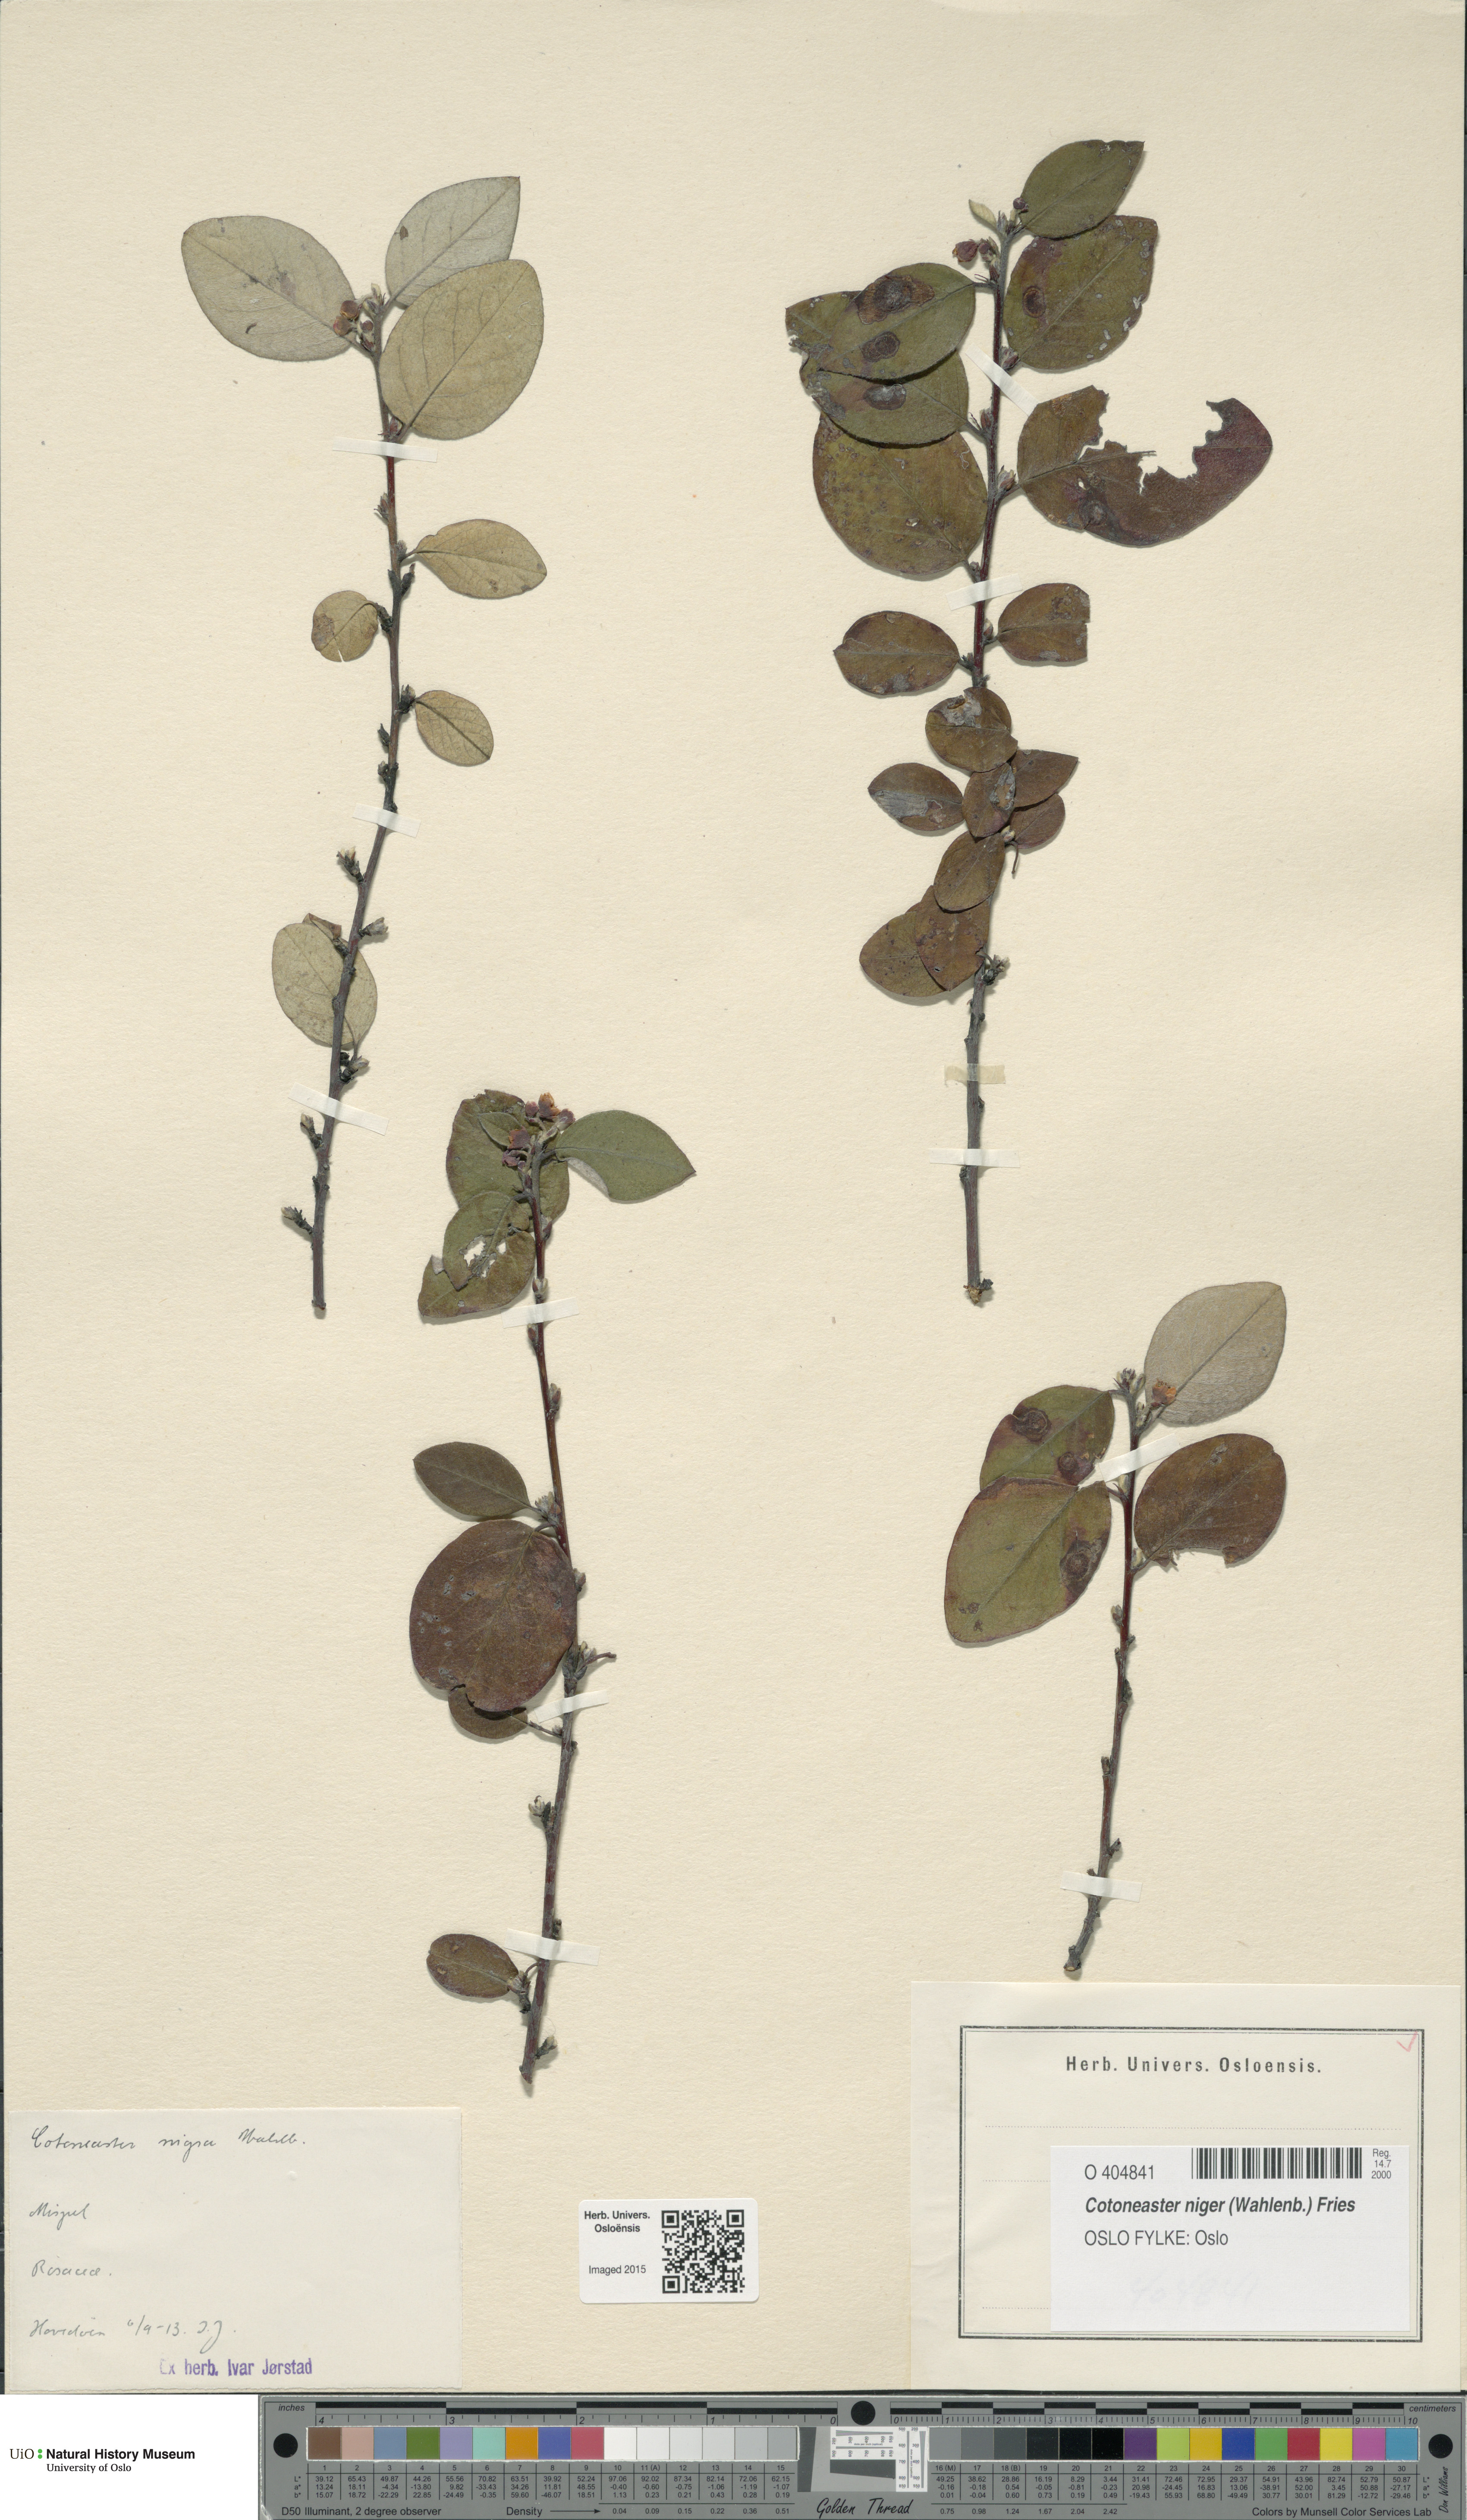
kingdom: Plantae
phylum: Tracheophyta
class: Magnoliopsida
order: Rosales
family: Rosaceae
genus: Cotoneaster
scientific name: Cotoneaster niger
